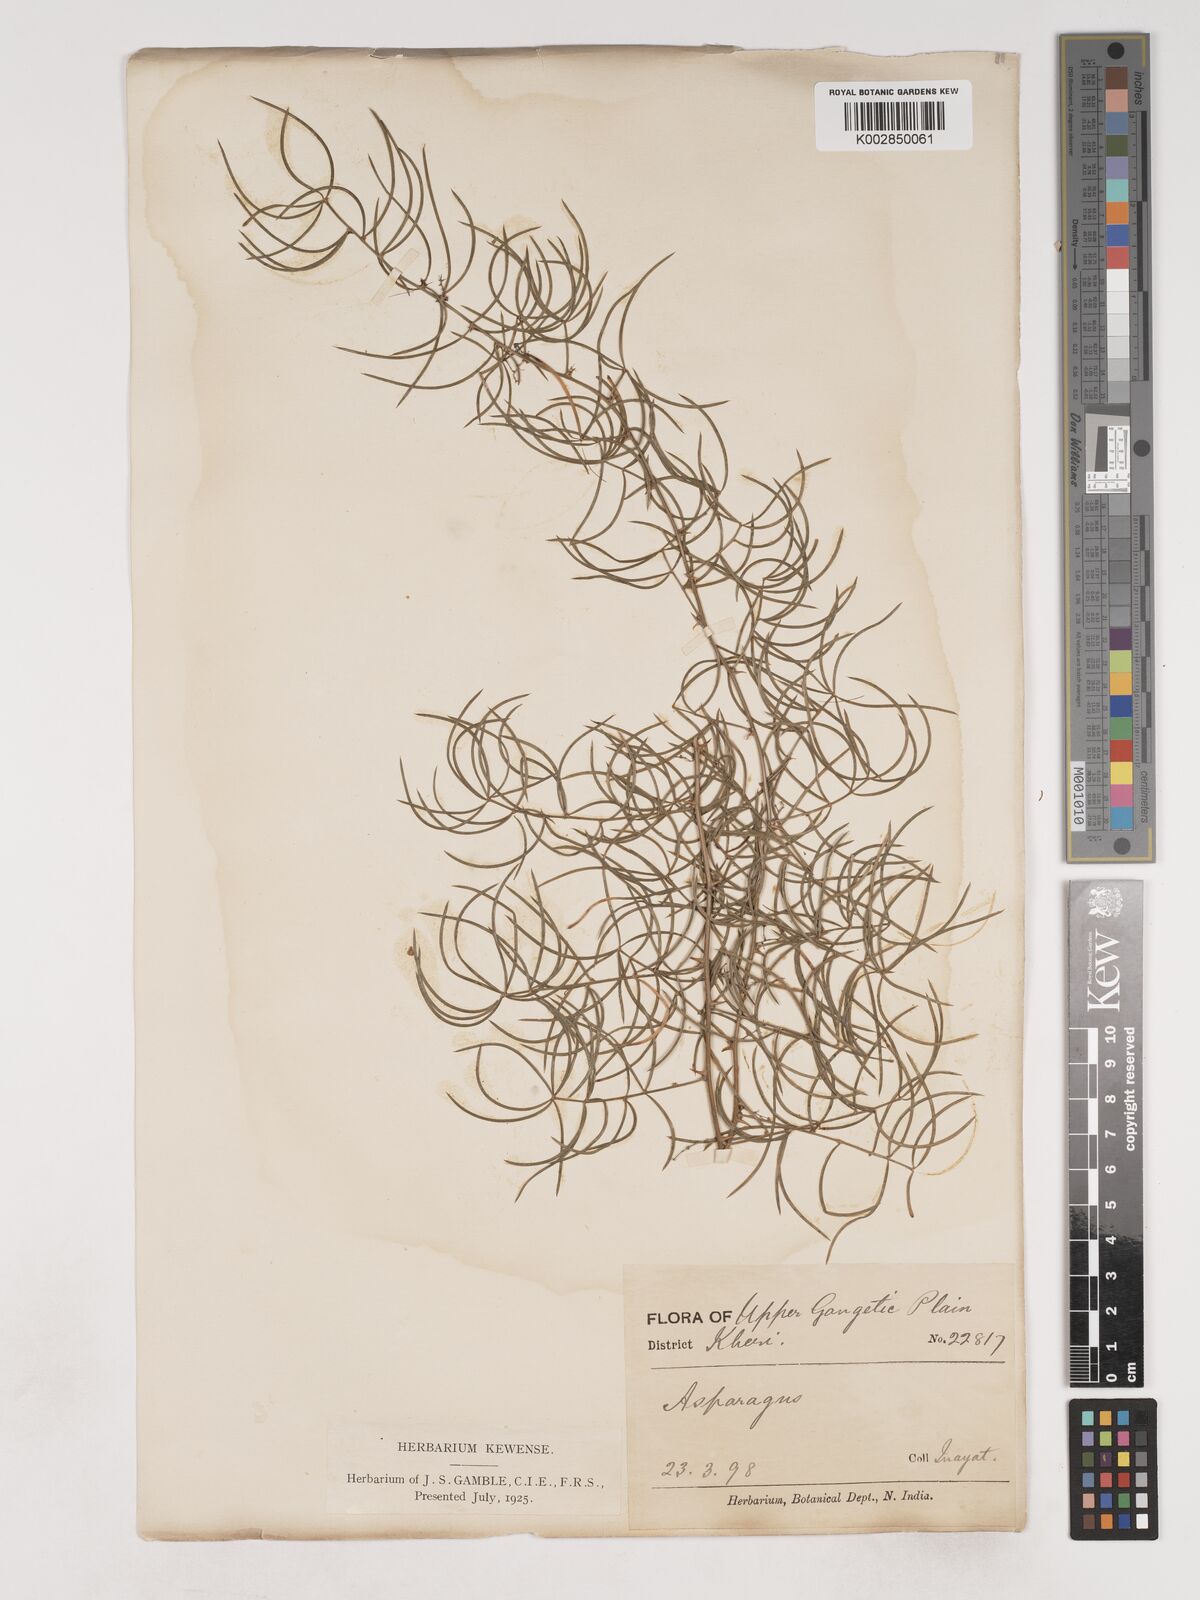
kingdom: Plantae
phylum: Tracheophyta
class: Liliopsida
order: Asparagales
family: Asparagaceae
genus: Asparagus
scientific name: Asparagus racemosus
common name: Asparagus-fern
